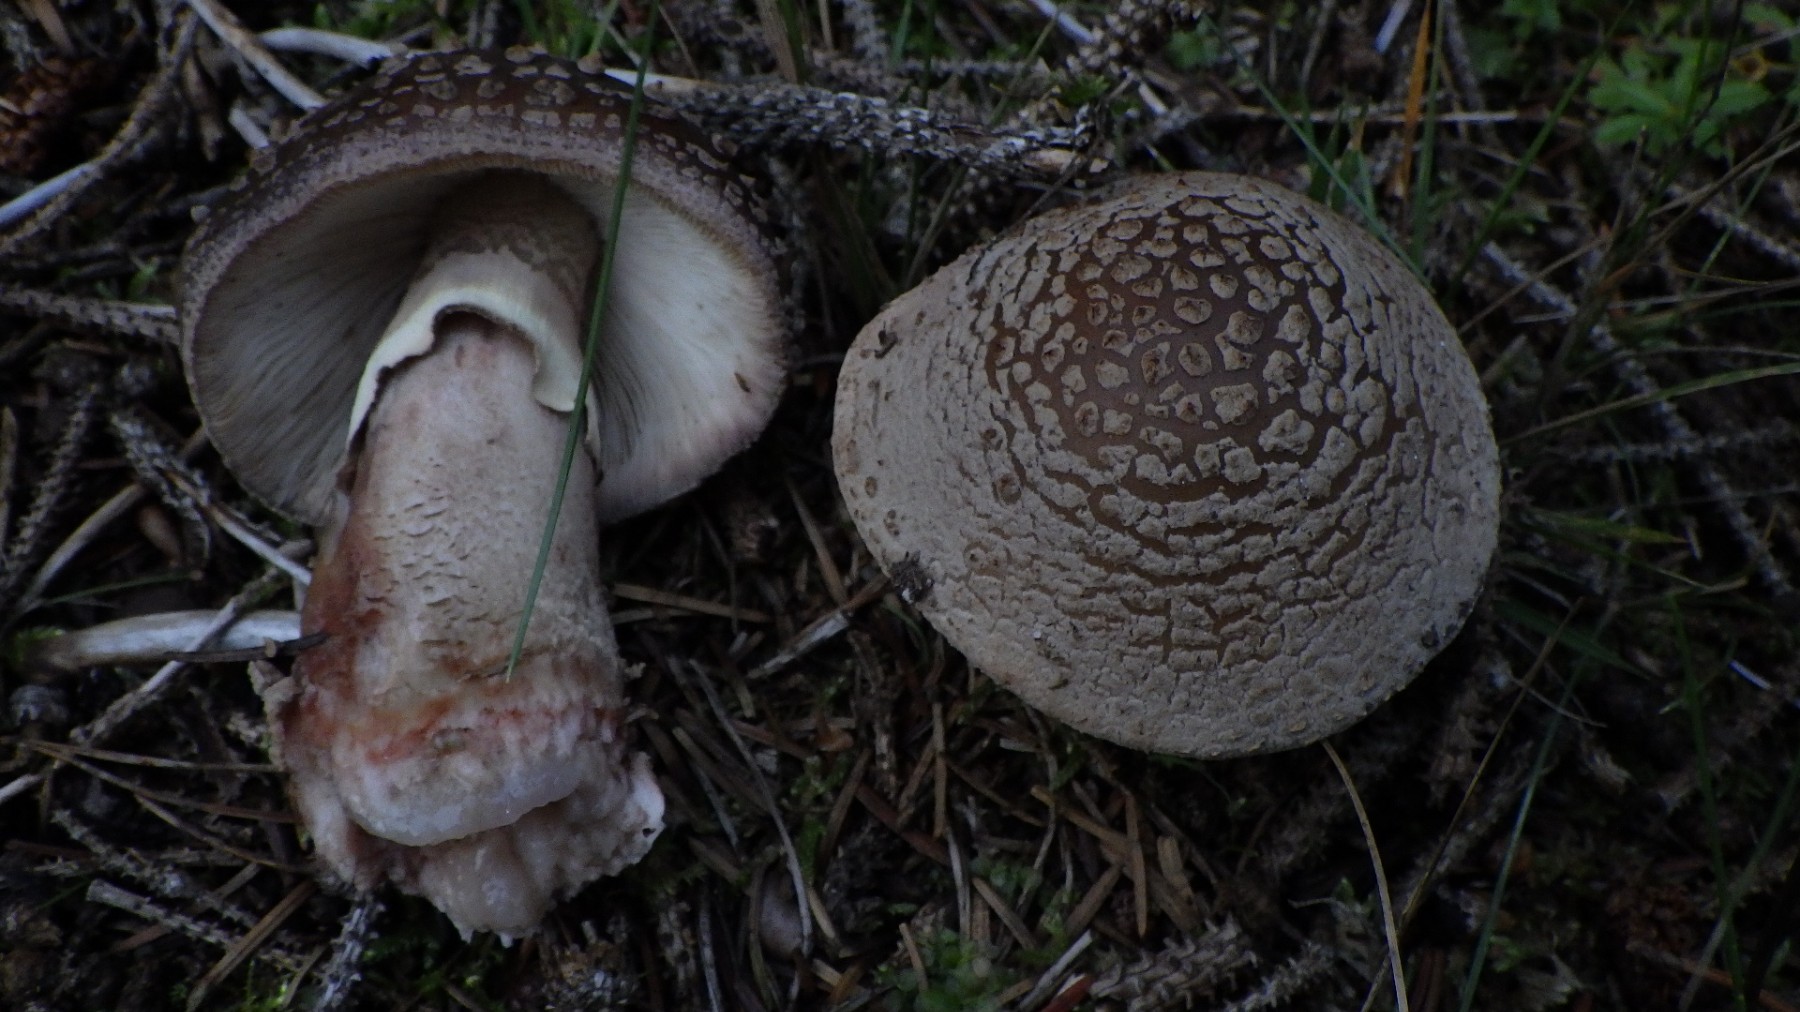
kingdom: Fungi
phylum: Basidiomycota
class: Agaricomycetes
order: Agaricales
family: Amanitaceae
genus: Amanita
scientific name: Amanita rubescens
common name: rødmende fluesvamp
